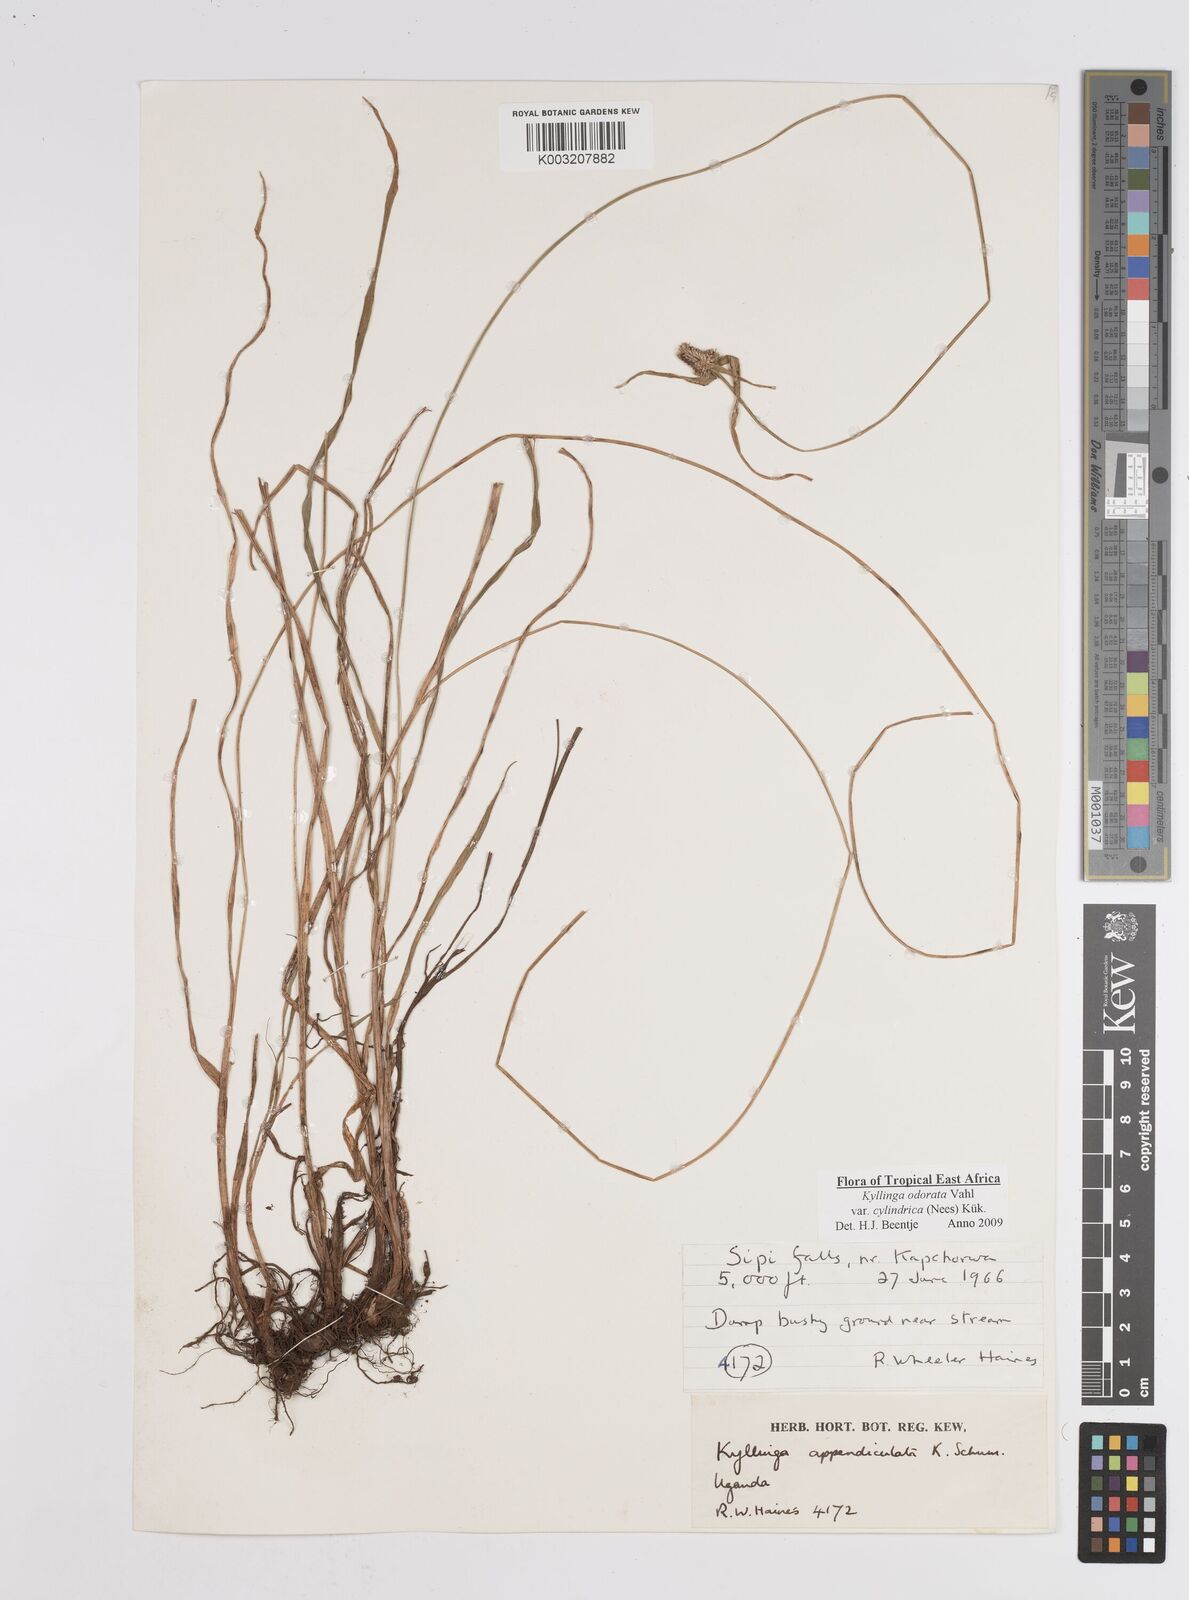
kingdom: Plantae
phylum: Tracheophyta
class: Liliopsida
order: Poales
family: Cyperaceae
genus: Cyperus
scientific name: Cyperus
